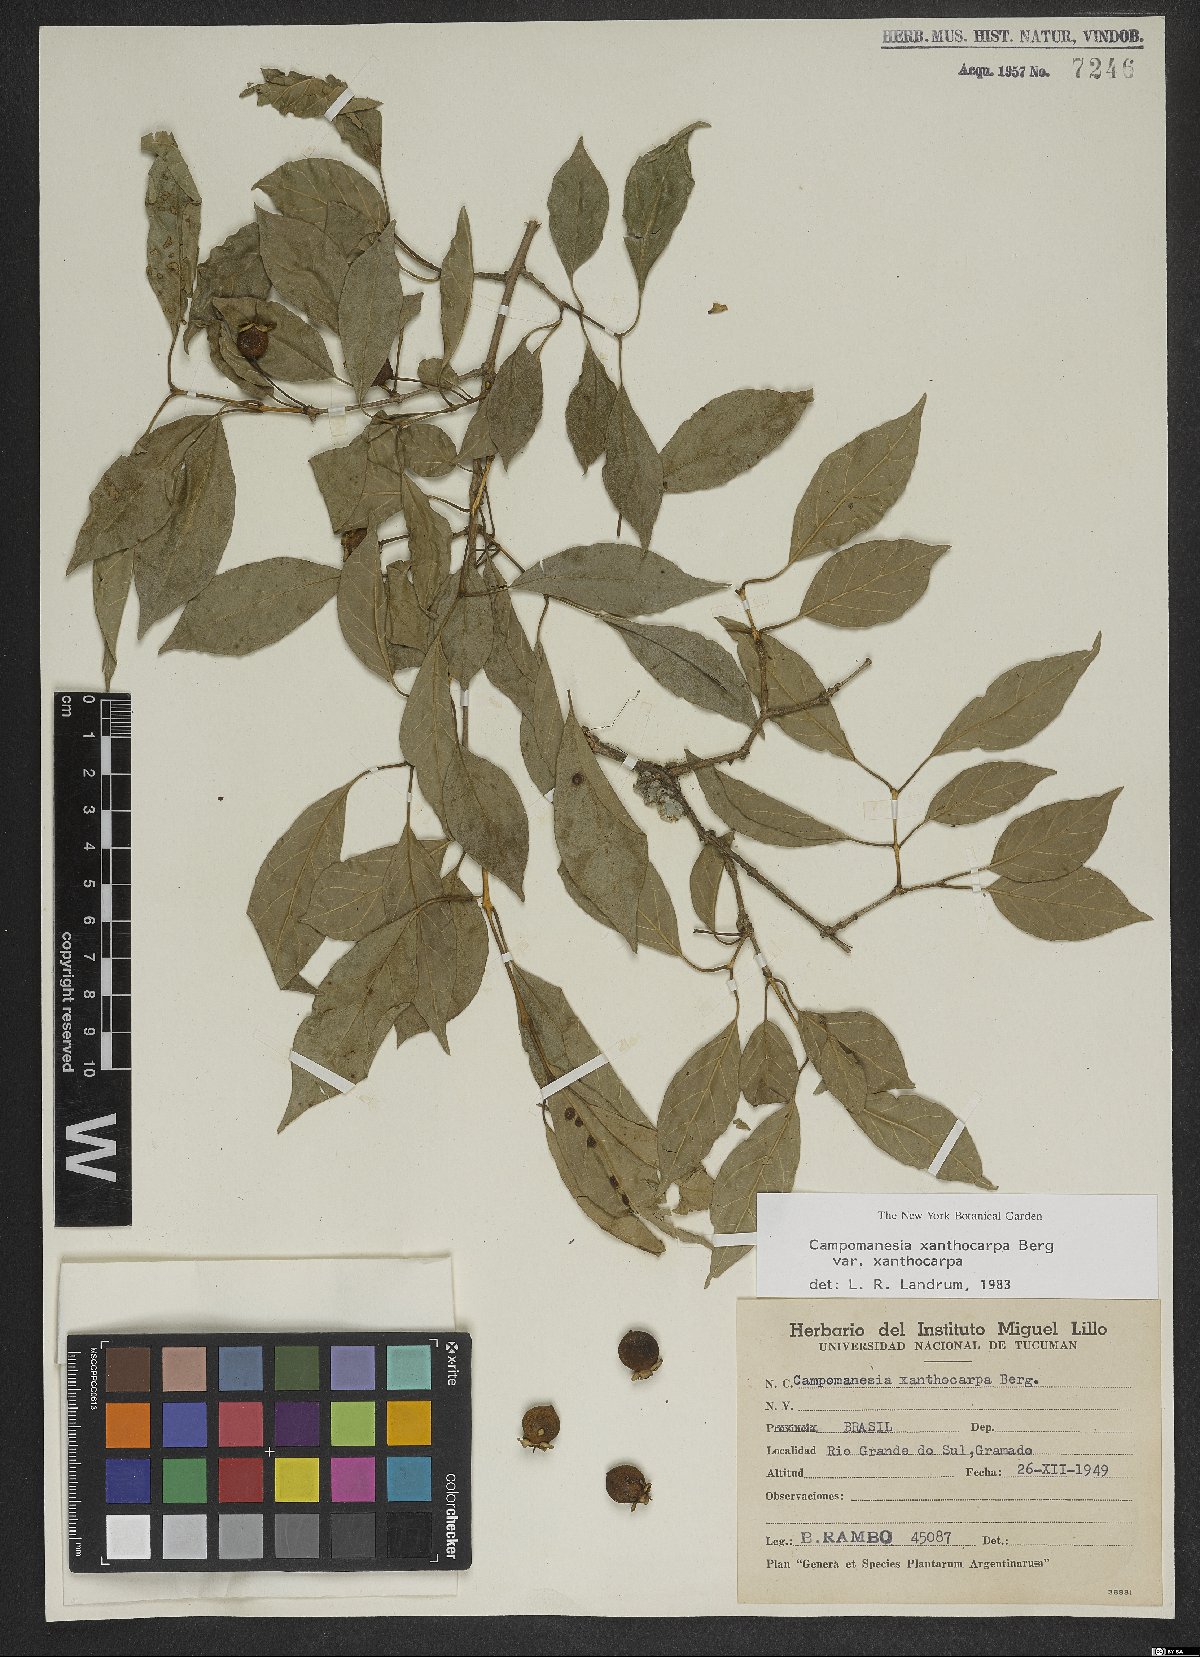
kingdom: Plantae
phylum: Tracheophyta
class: Magnoliopsida
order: Myrtales
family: Myrtaceae
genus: Campomanesia
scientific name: Campomanesia xanthocarpa
